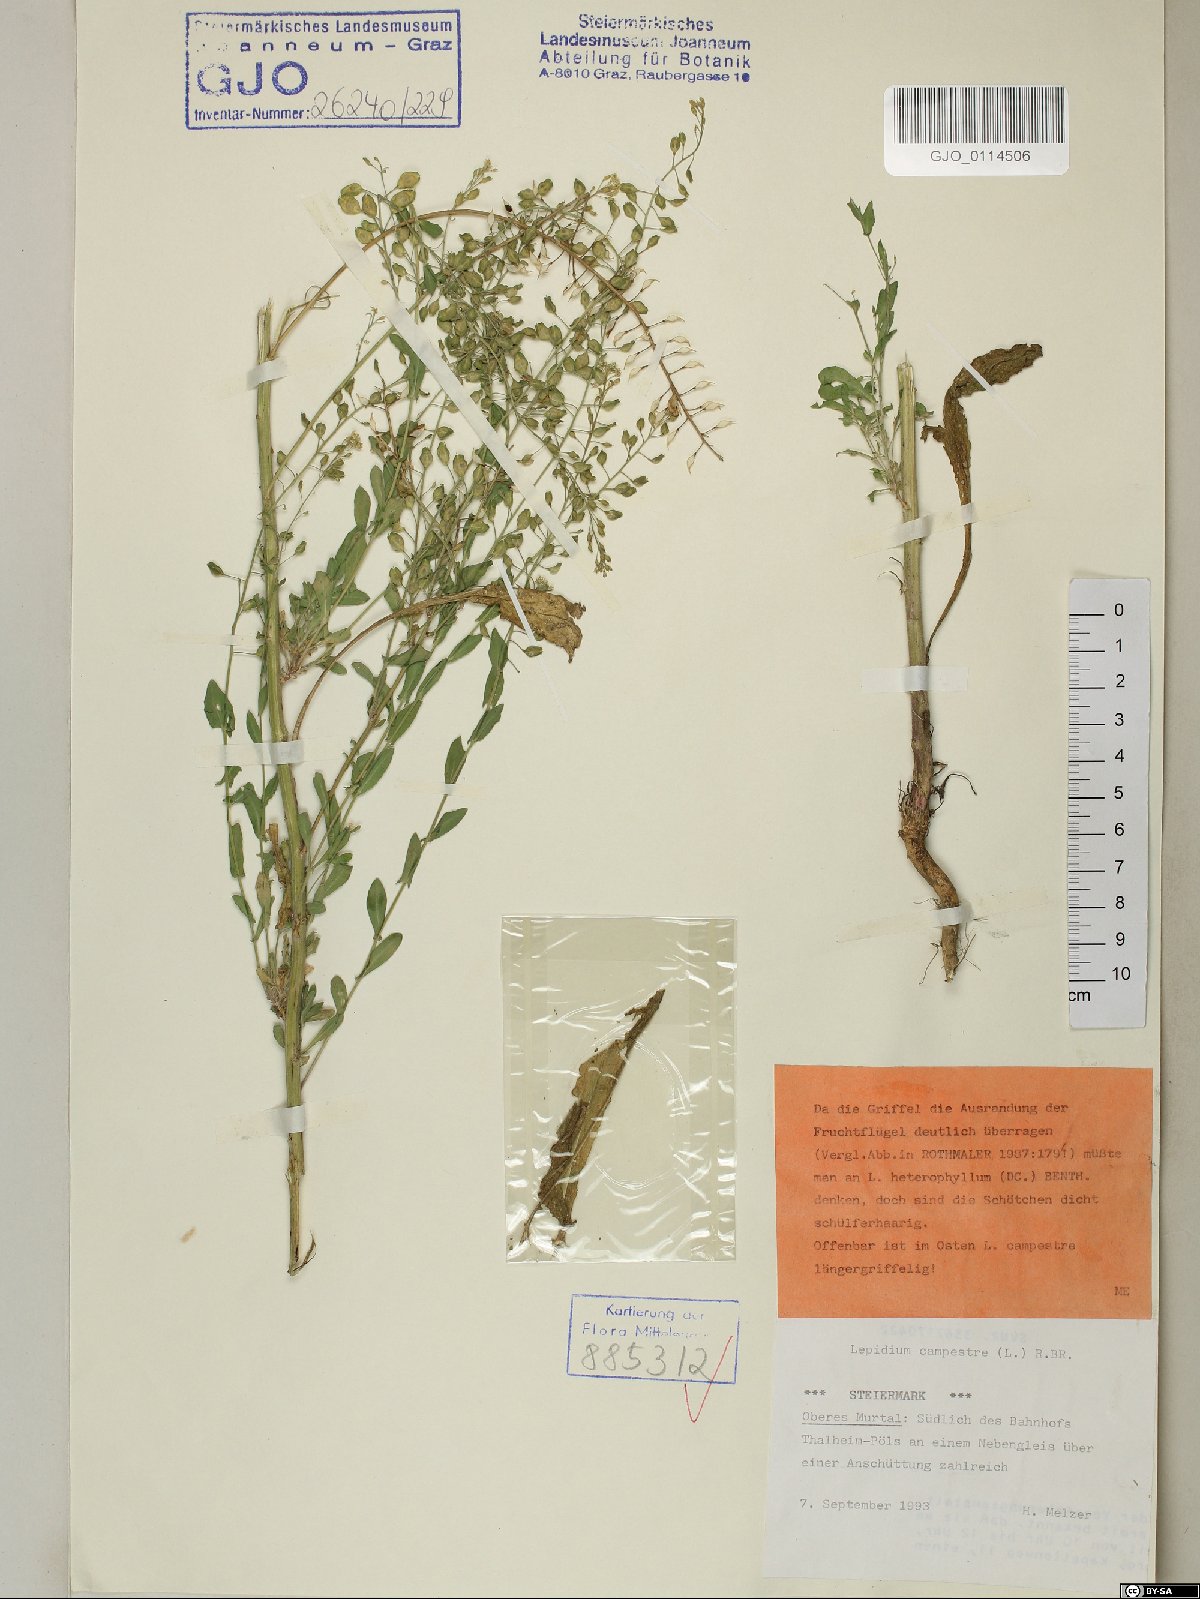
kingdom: Plantae
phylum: Tracheophyta
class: Magnoliopsida
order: Brassicales
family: Brassicaceae
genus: Lepidium
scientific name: Lepidium campestre
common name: Field pepperwort
